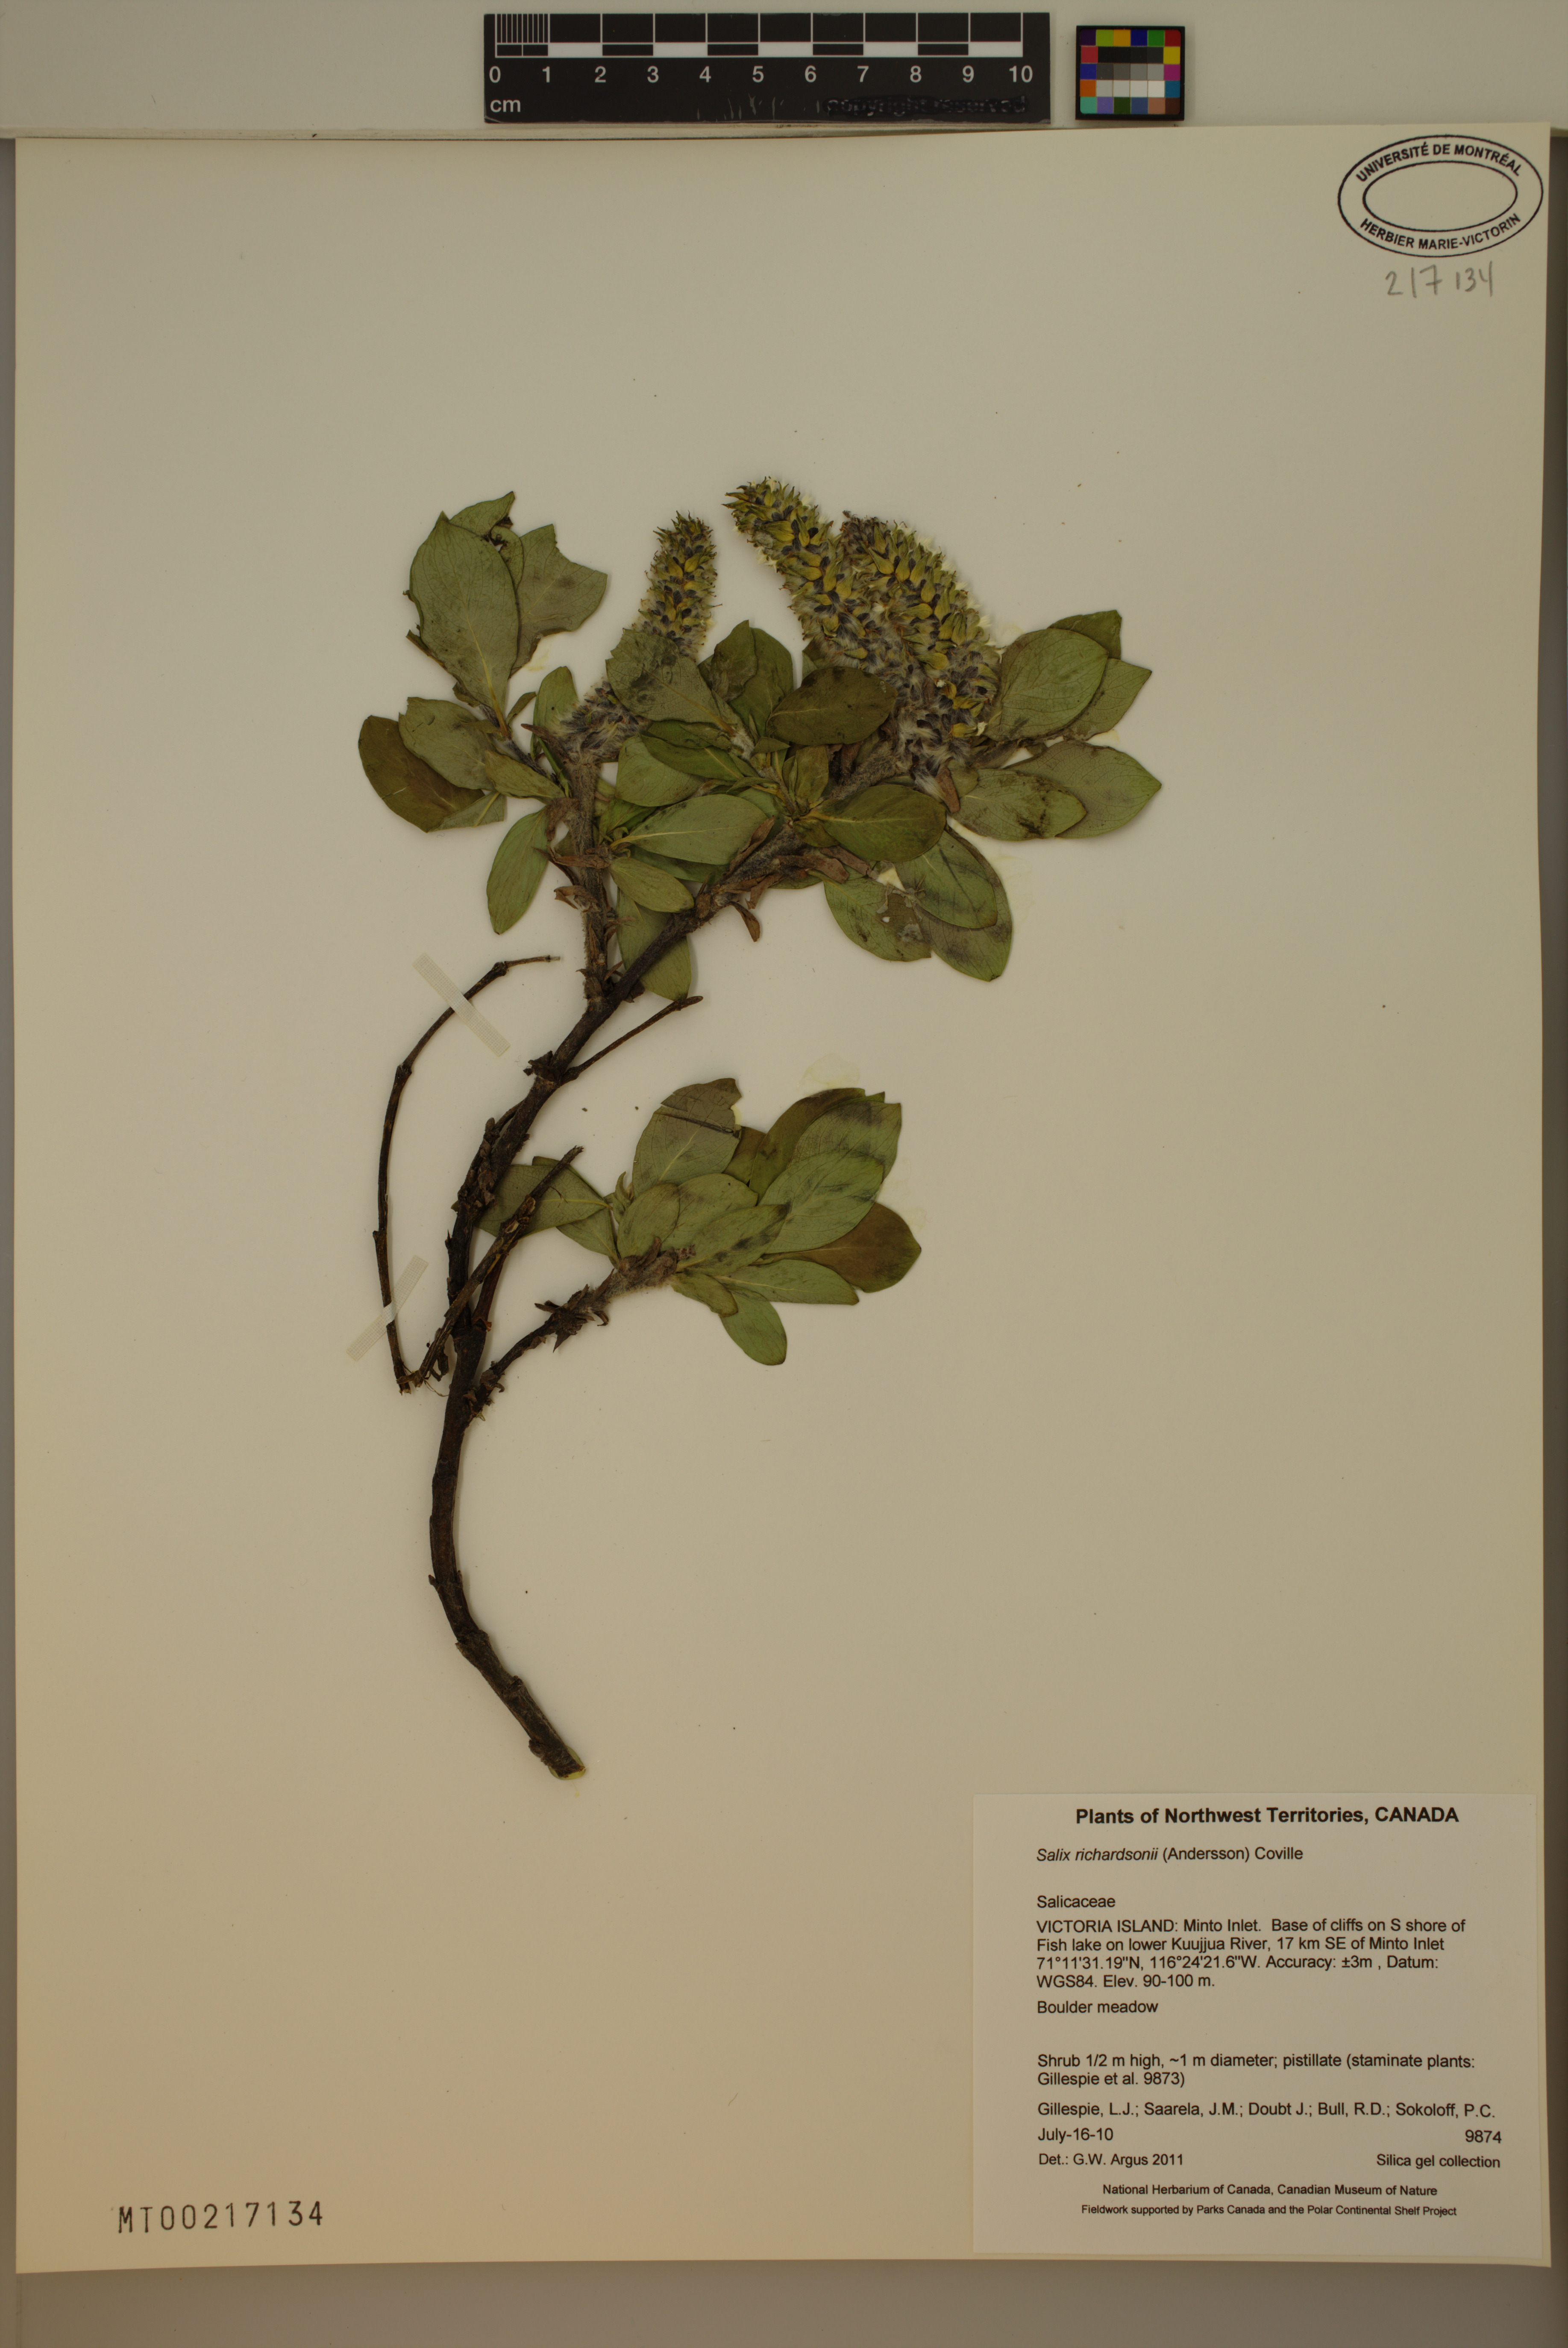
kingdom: Plantae
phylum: Tracheophyta
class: Magnoliopsida
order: Malpighiales
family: Salicaceae
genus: Salix
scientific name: Salix richardsonii
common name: Richardson’s willow
